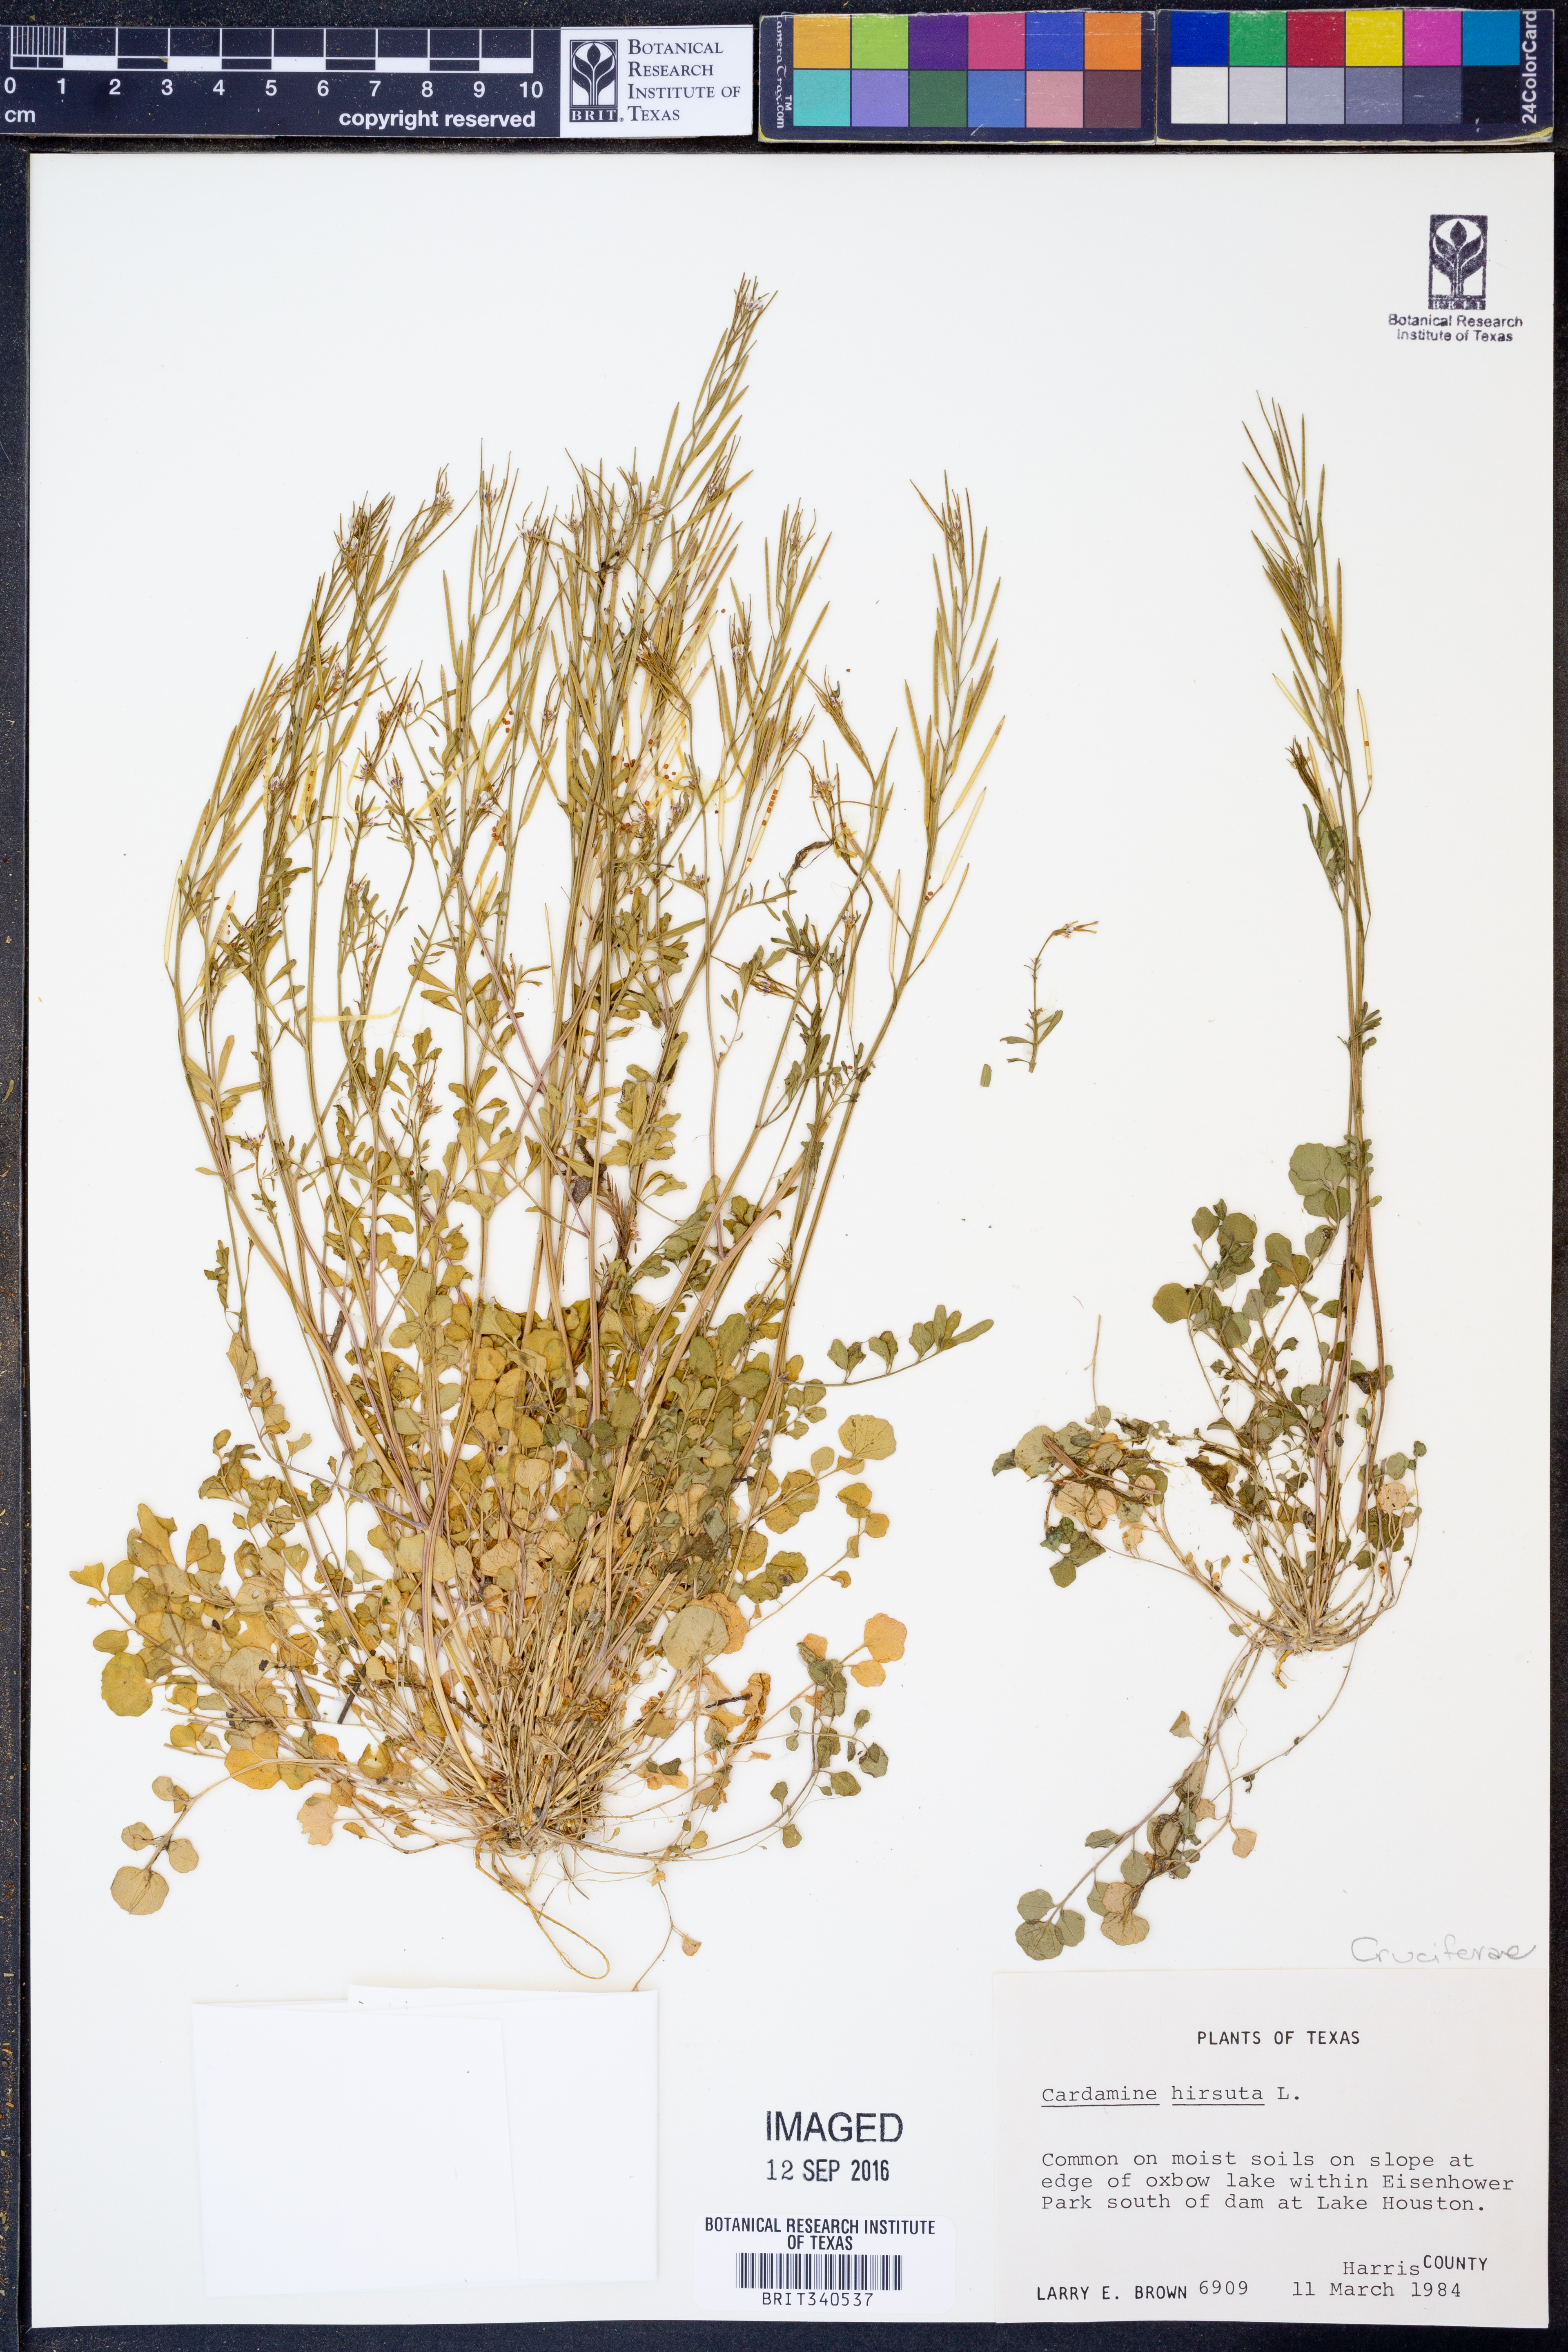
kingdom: Plantae
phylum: Tracheophyta
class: Magnoliopsida
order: Brassicales
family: Brassicaceae
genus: Cardamine
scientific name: Cardamine hirsuta
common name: Hairy bittercress
